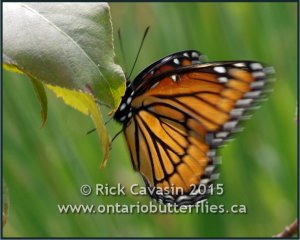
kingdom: Animalia
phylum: Arthropoda
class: Insecta
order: Lepidoptera
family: Nymphalidae
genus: Limenitis
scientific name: Limenitis archippus
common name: Viceroy
